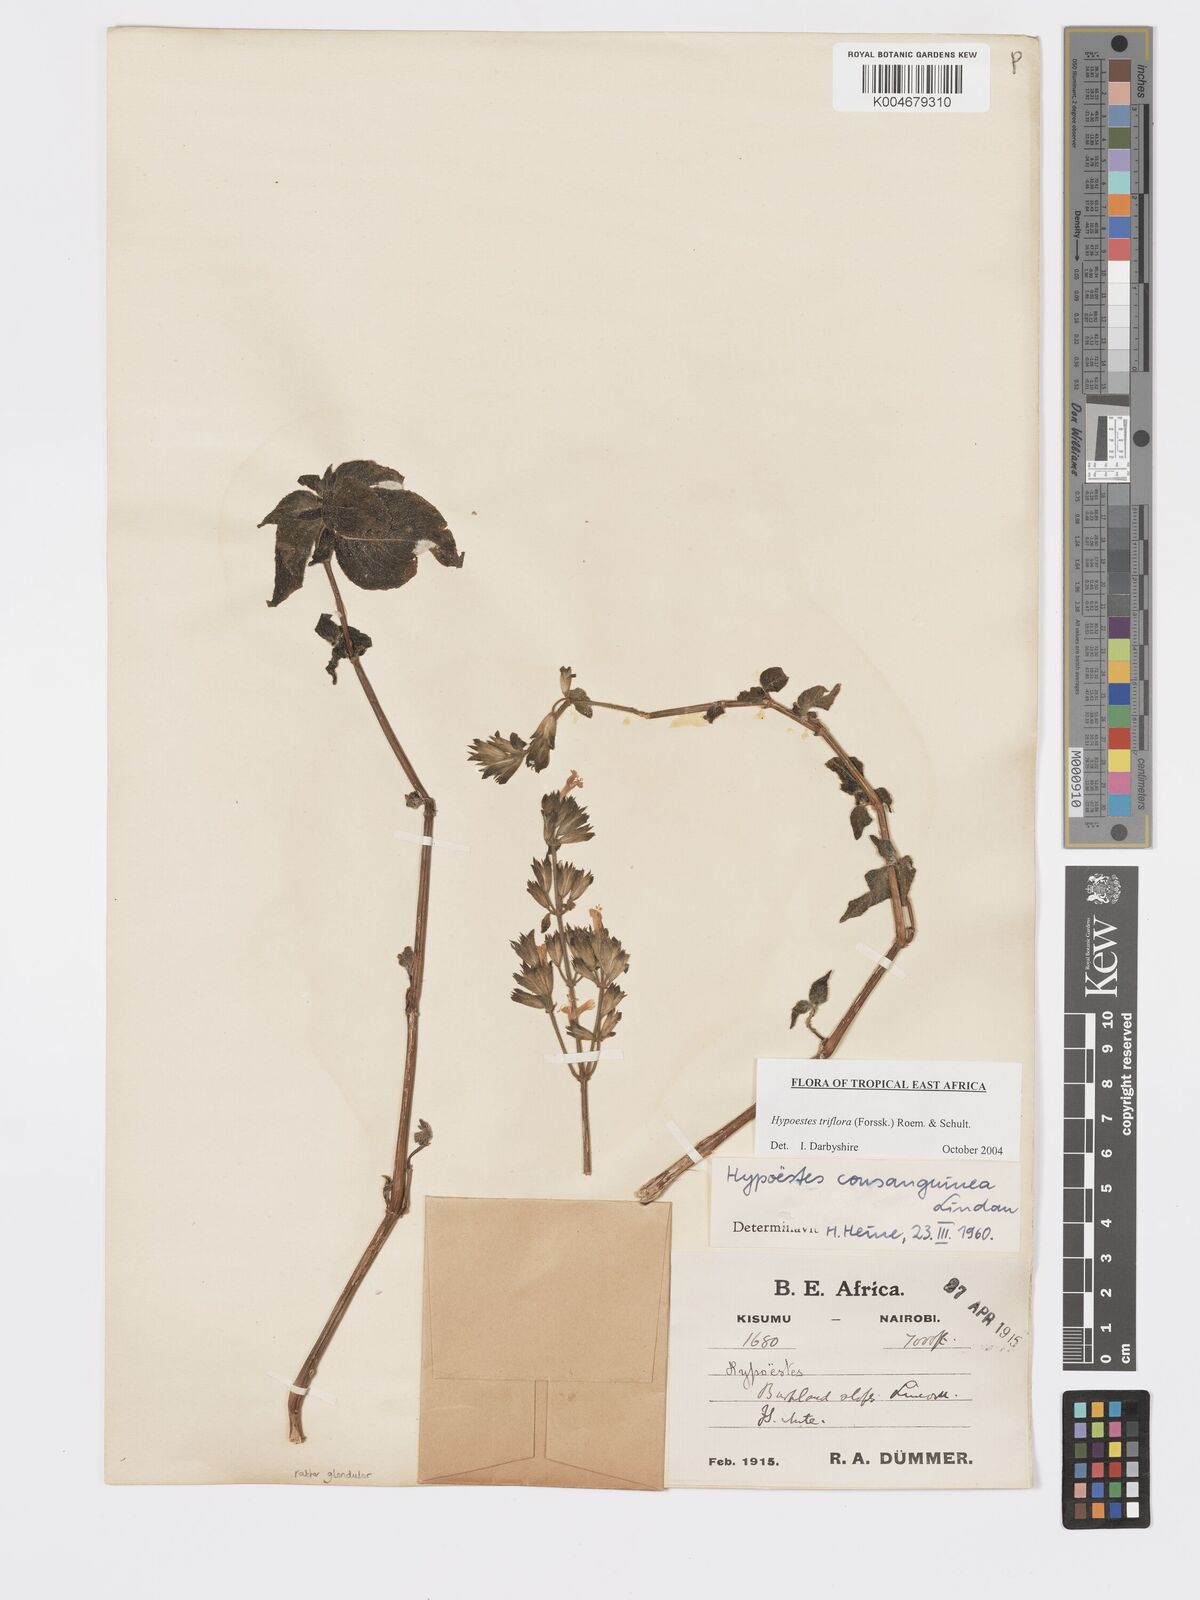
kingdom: Plantae
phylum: Tracheophyta
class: Magnoliopsida
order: Lamiales
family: Acanthaceae
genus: Hypoestes
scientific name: Hypoestes triflora
